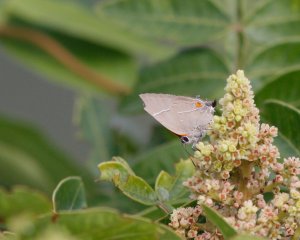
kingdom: Animalia
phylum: Arthropoda
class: Insecta
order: Lepidoptera
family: Lycaenidae
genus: Parrhasius
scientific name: Parrhasius m-album
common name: White-m Hairstreak
